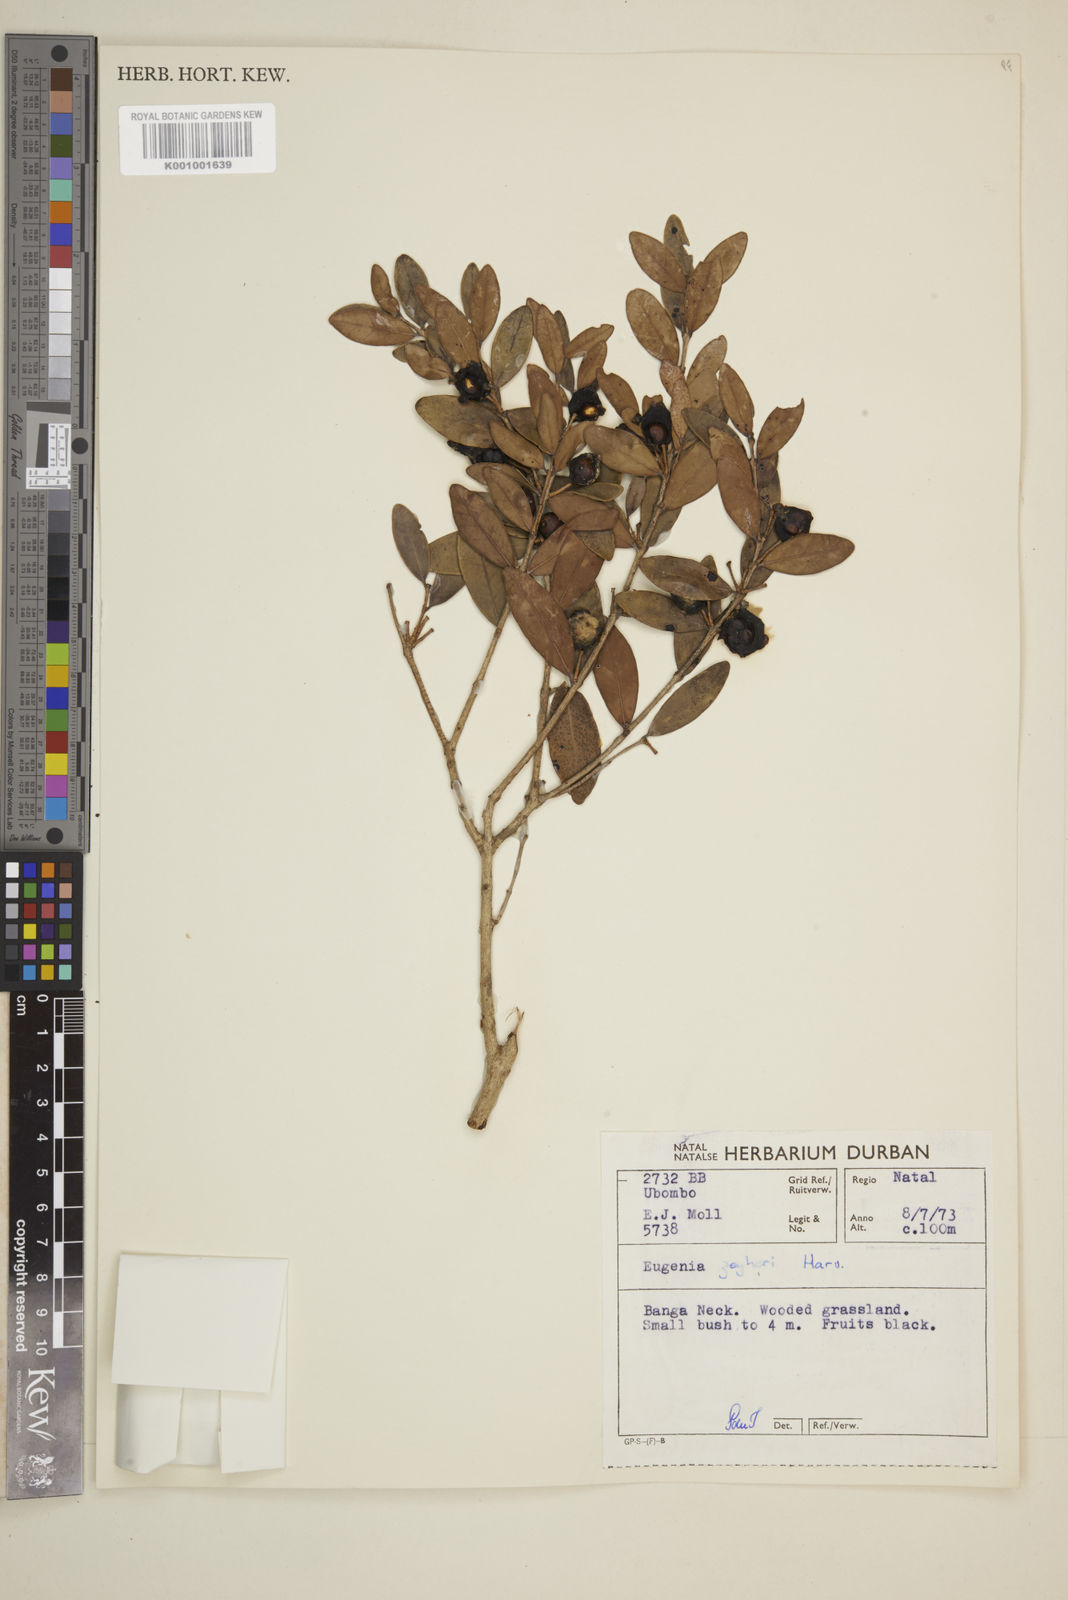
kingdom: Plantae
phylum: Tracheophyta
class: Magnoliopsida
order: Myrtales
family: Myrtaceae
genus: Eugenia
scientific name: Eugenia zeyheri
